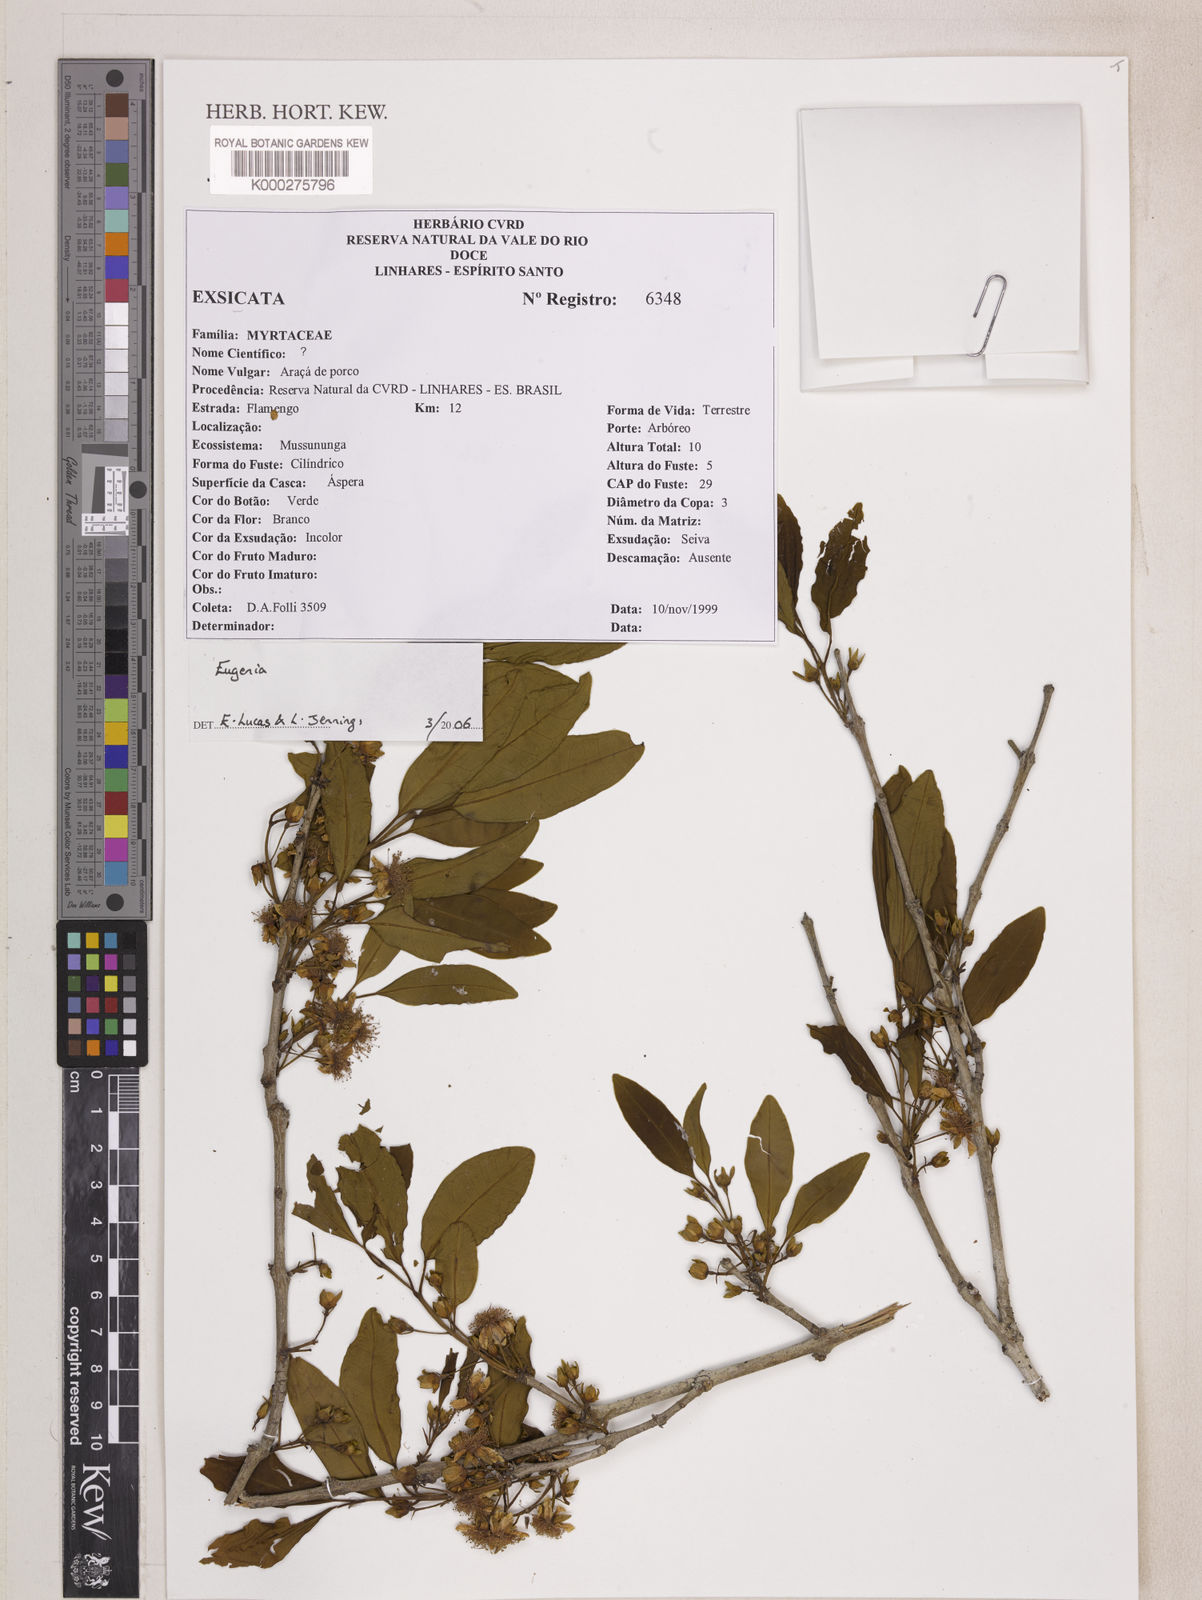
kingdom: Plantae
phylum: Tracheophyta
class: Magnoliopsida
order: Myrtales
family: Myrtaceae
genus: Eugenia
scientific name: Eugenia bunchosiifolia
